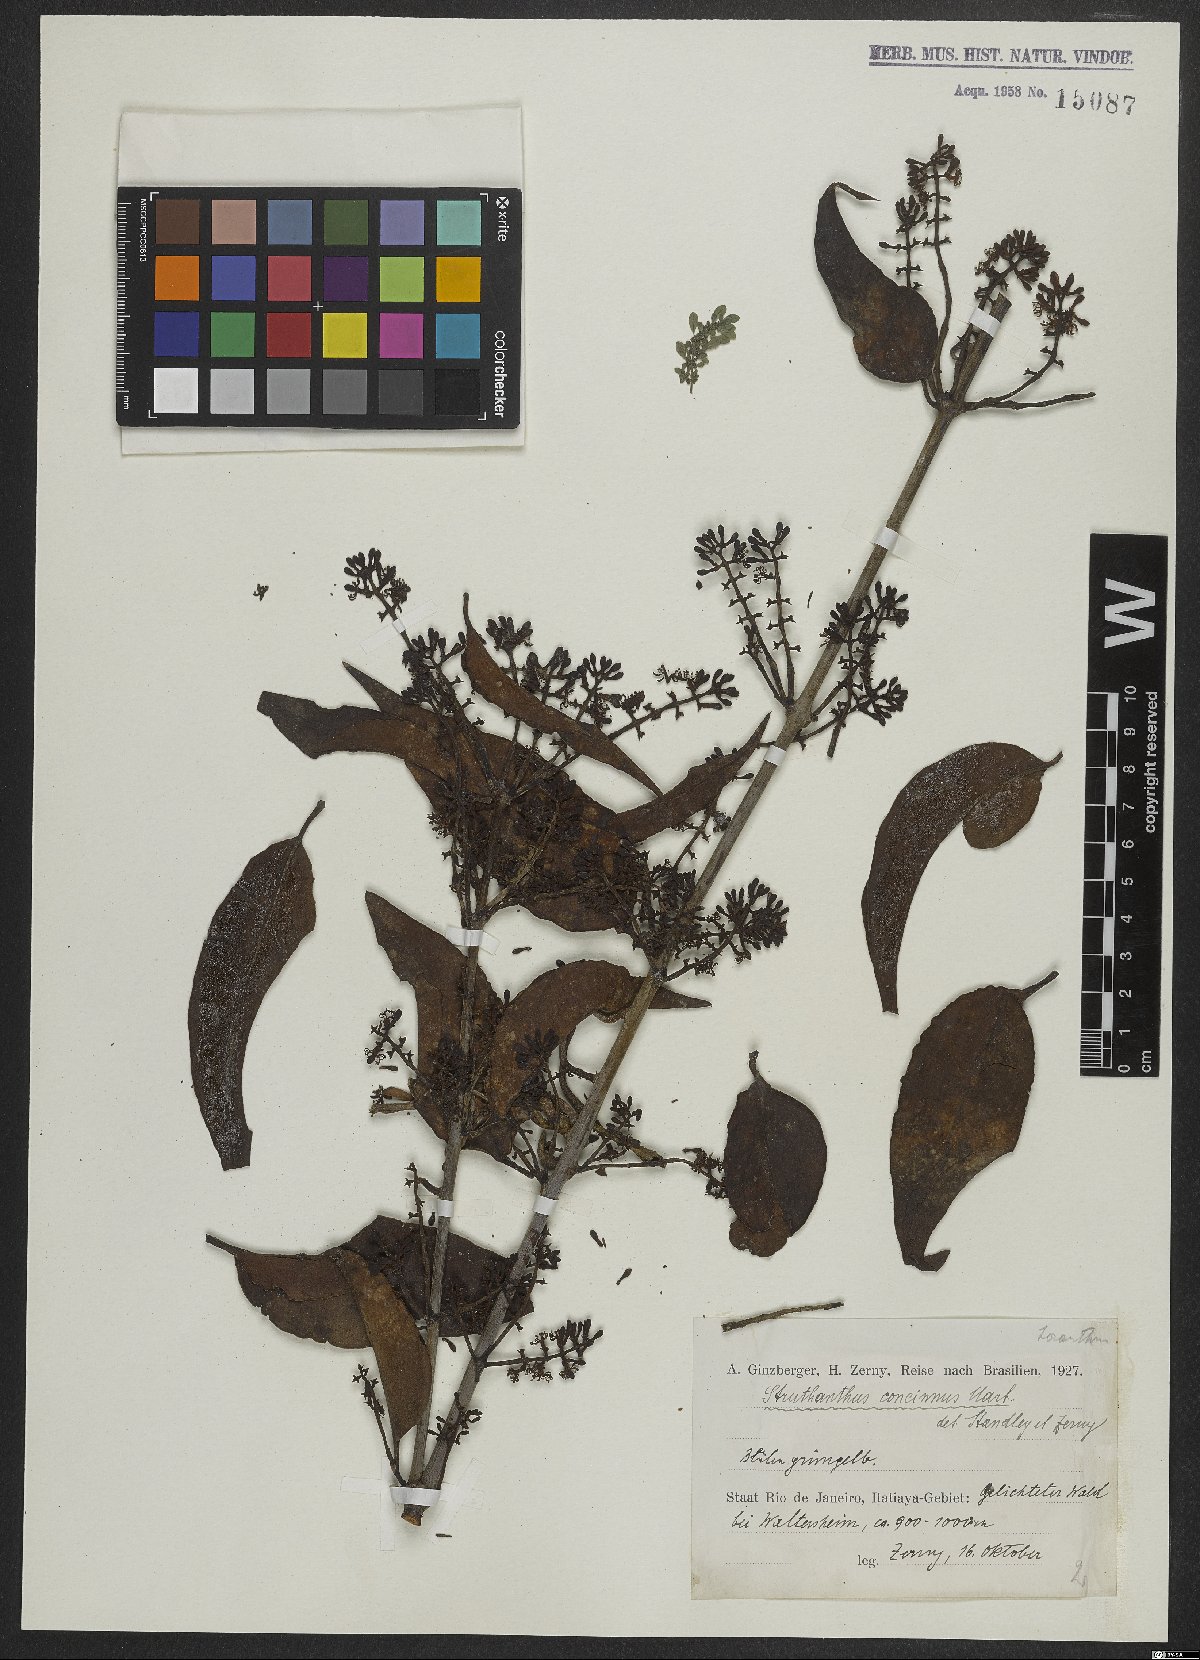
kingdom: Plantae
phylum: Tracheophyta
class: Magnoliopsida
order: Santalales
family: Loranthaceae
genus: Struthanthus
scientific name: Struthanthus concinnus
